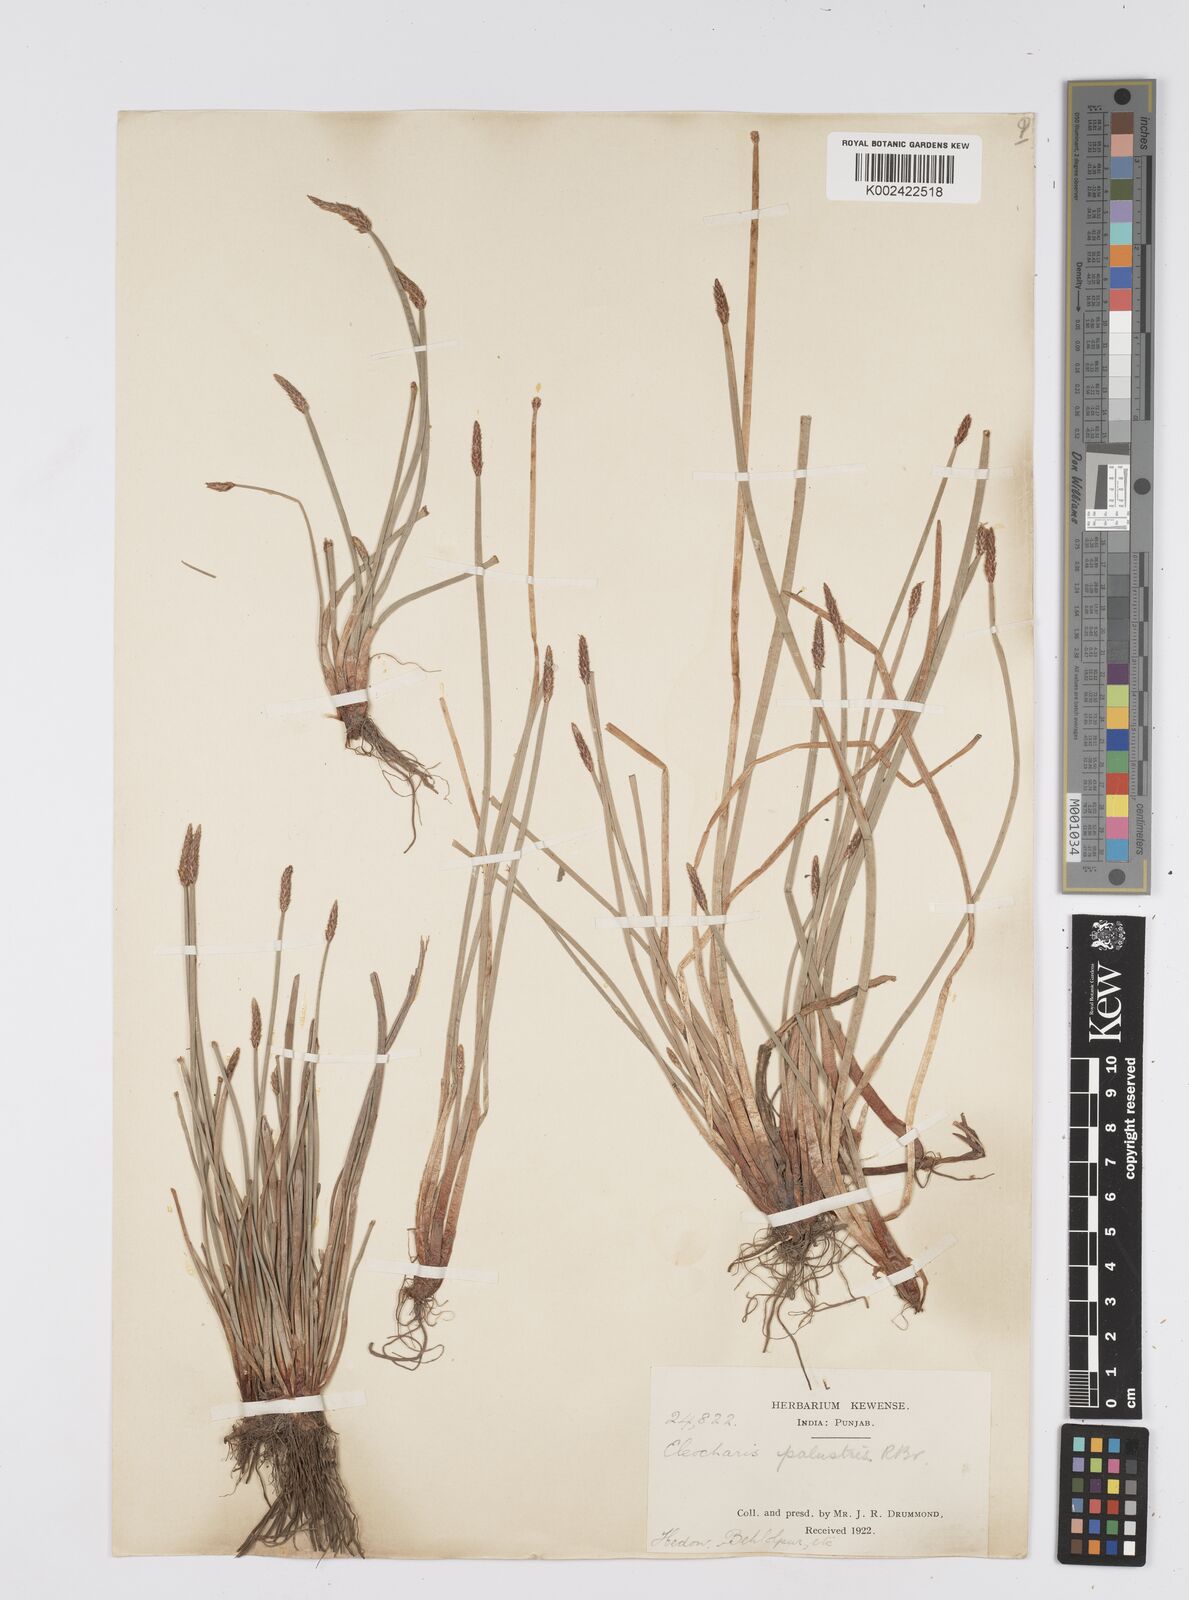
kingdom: Plantae
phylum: Tracheophyta
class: Liliopsida
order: Poales
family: Cyperaceae
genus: Eleocharis
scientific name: Eleocharis palustris
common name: Common spike-rush
